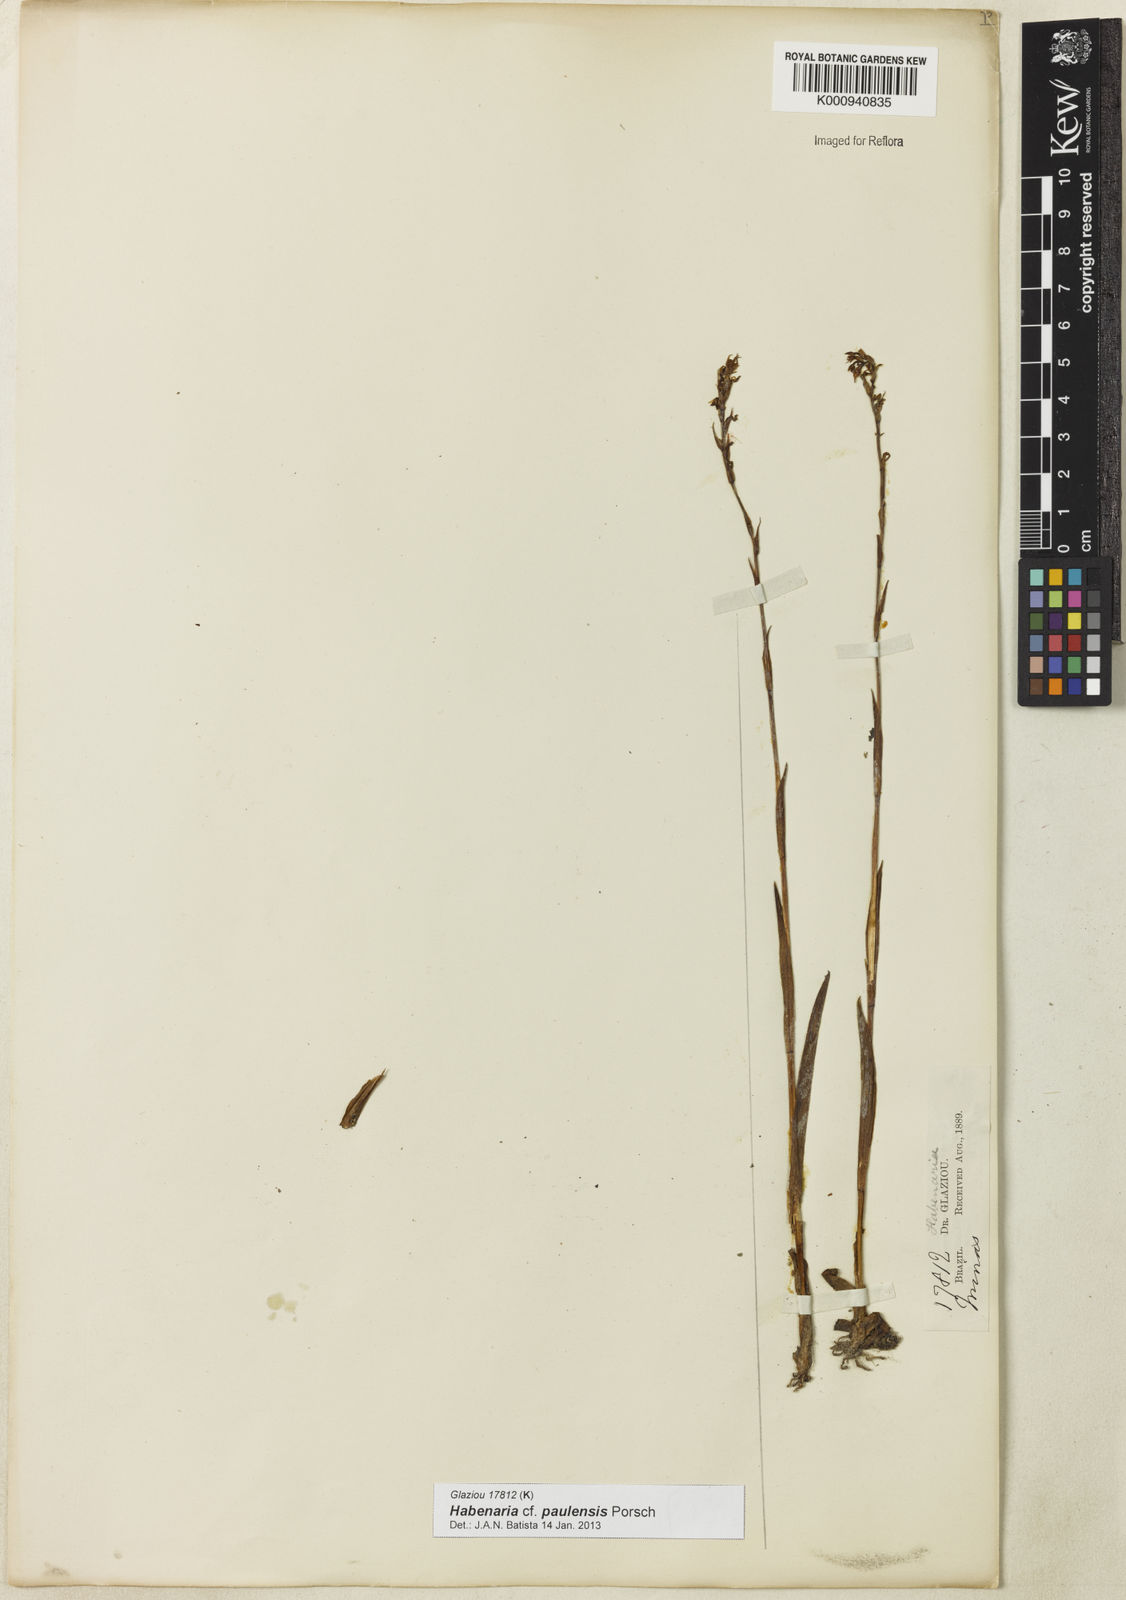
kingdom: Plantae
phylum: Tracheophyta
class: Liliopsida
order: Asparagales
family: Orchidaceae
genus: Habenaria
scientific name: Habenaria paulensis
